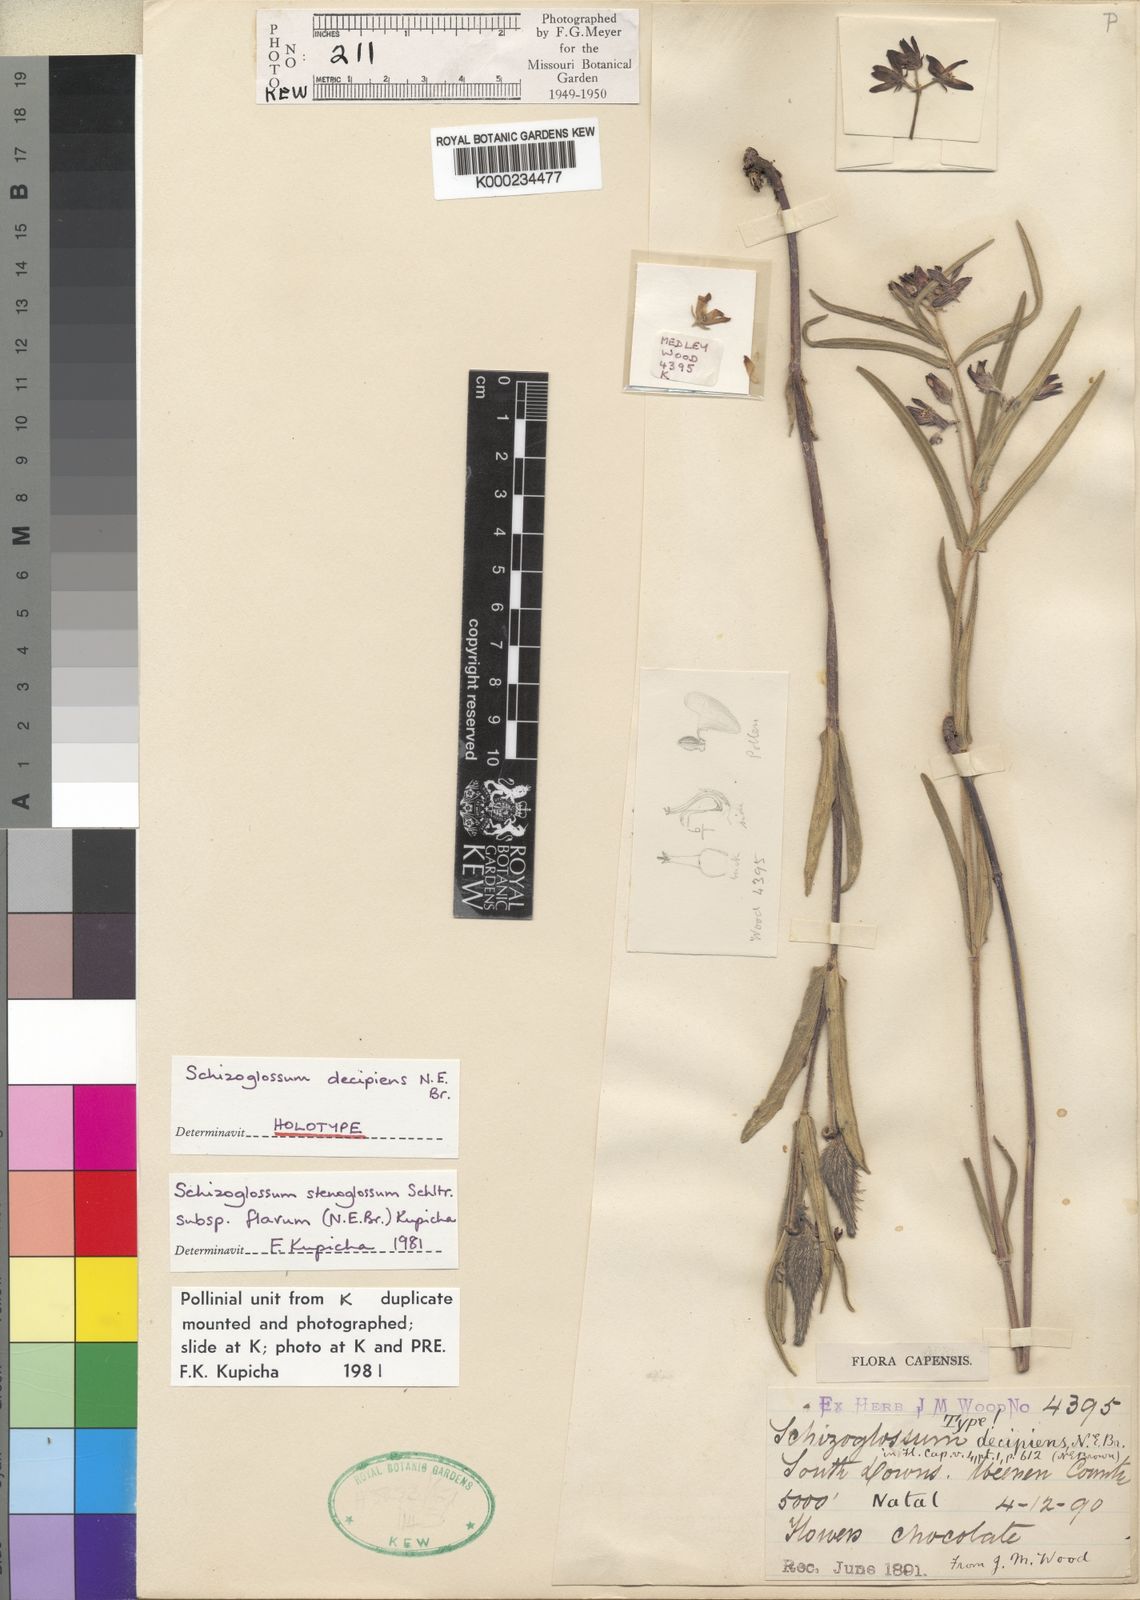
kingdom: Plantae
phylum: Tracheophyta
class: Magnoliopsida
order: Gentianales
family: Apocynaceae
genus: Schizoglossum
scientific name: Schizoglossum stenoglossum
